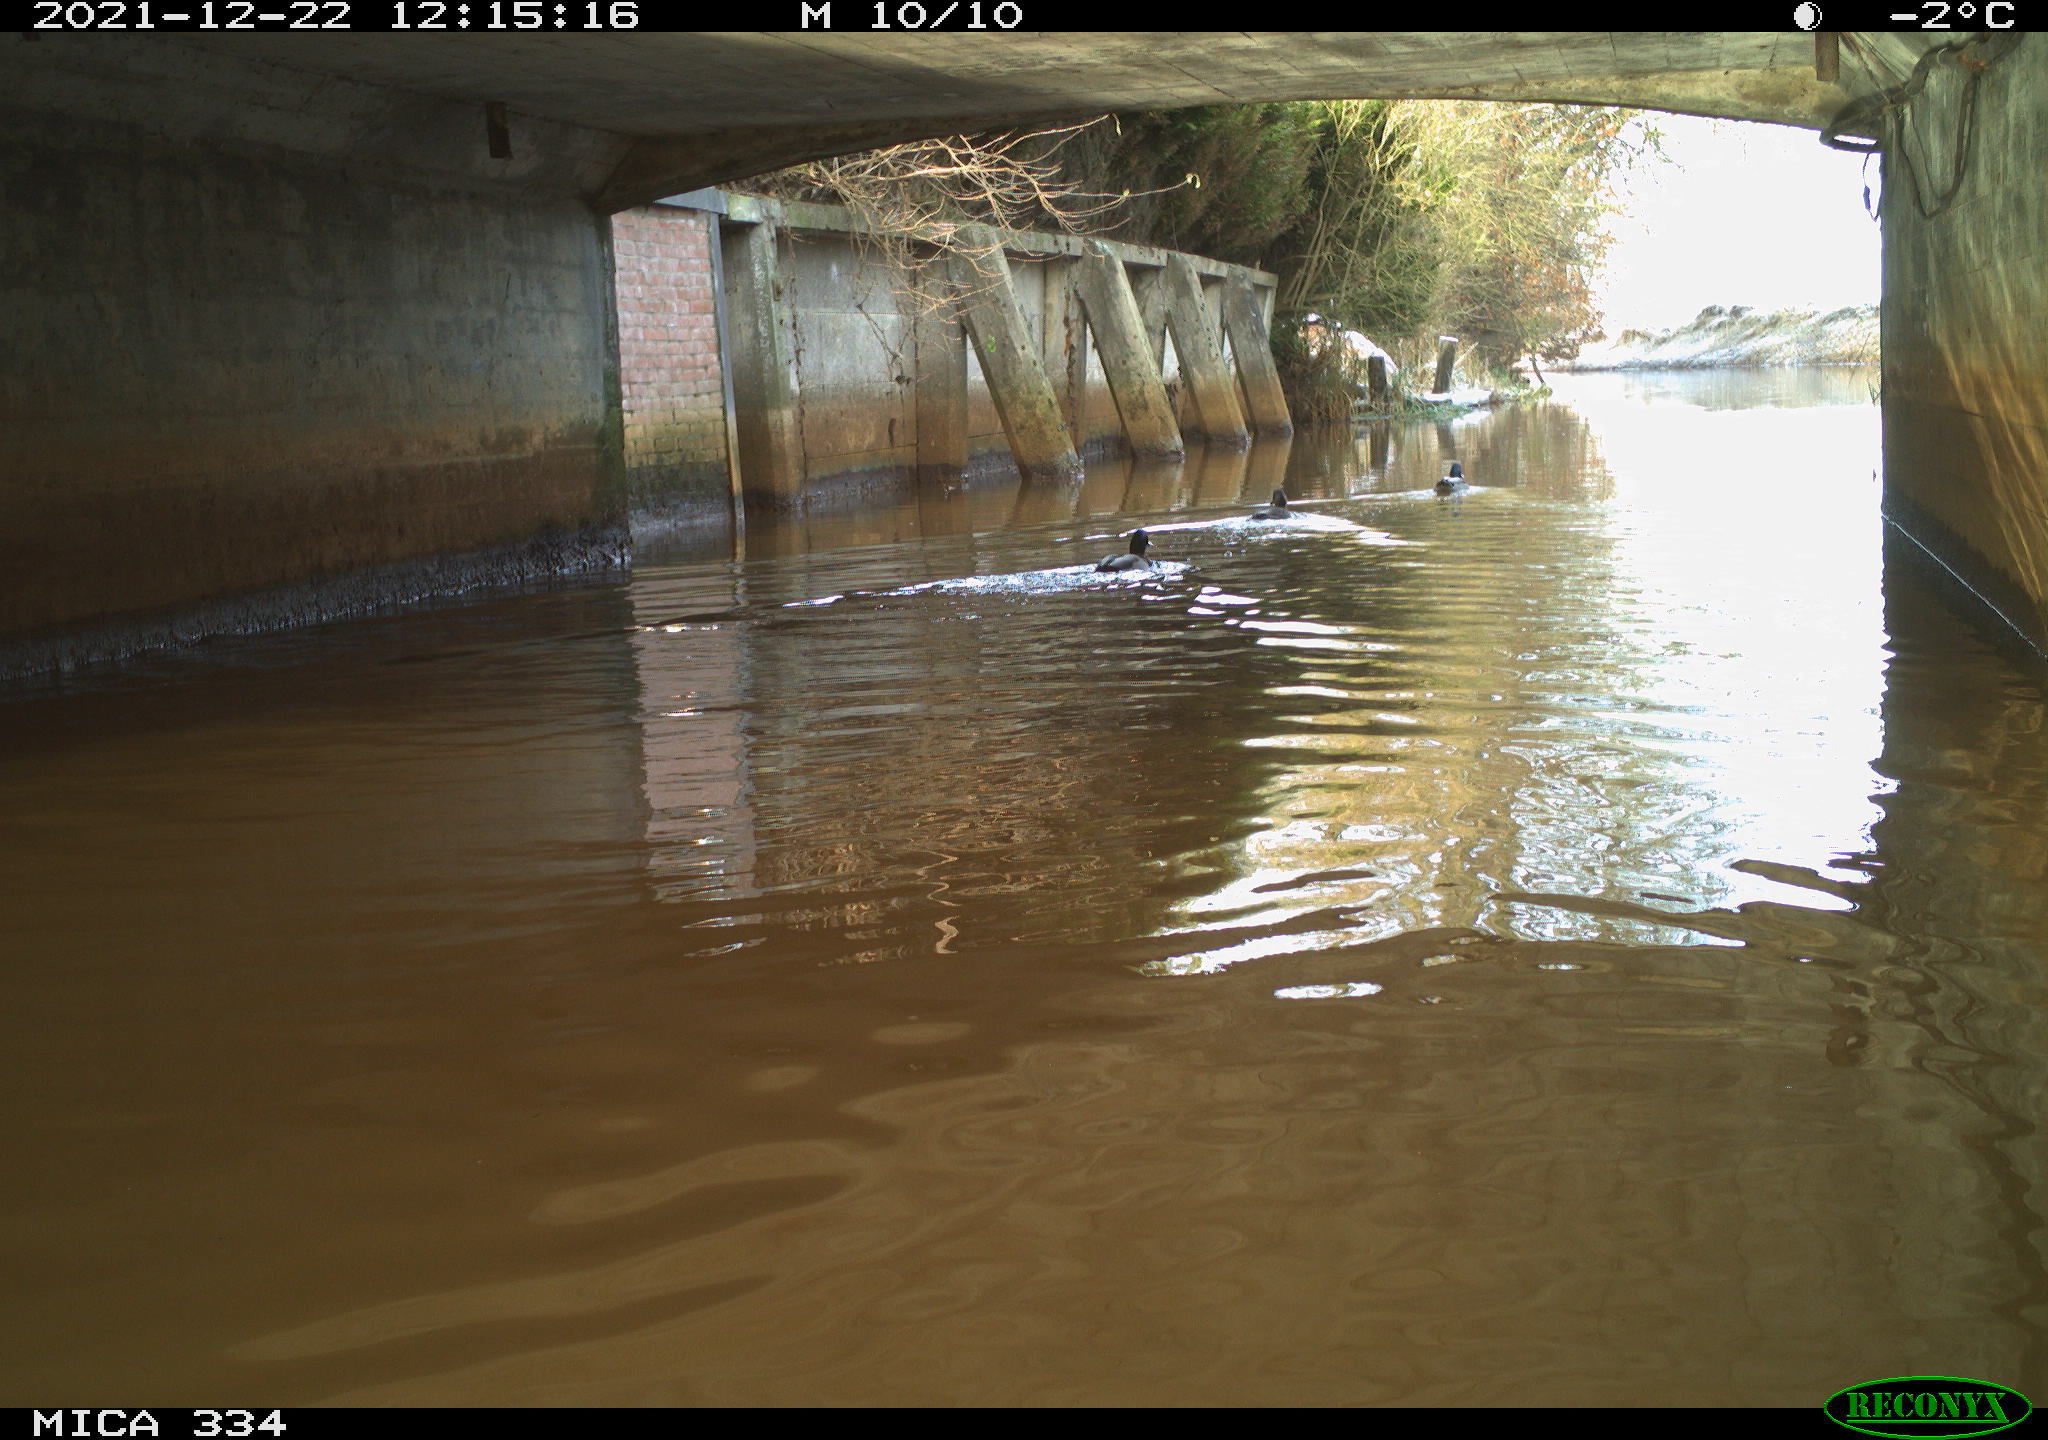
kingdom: Animalia
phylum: Chordata
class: Aves
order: Anseriformes
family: Anatidae
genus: Anas
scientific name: Anas platyrhynchos
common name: Mallard
